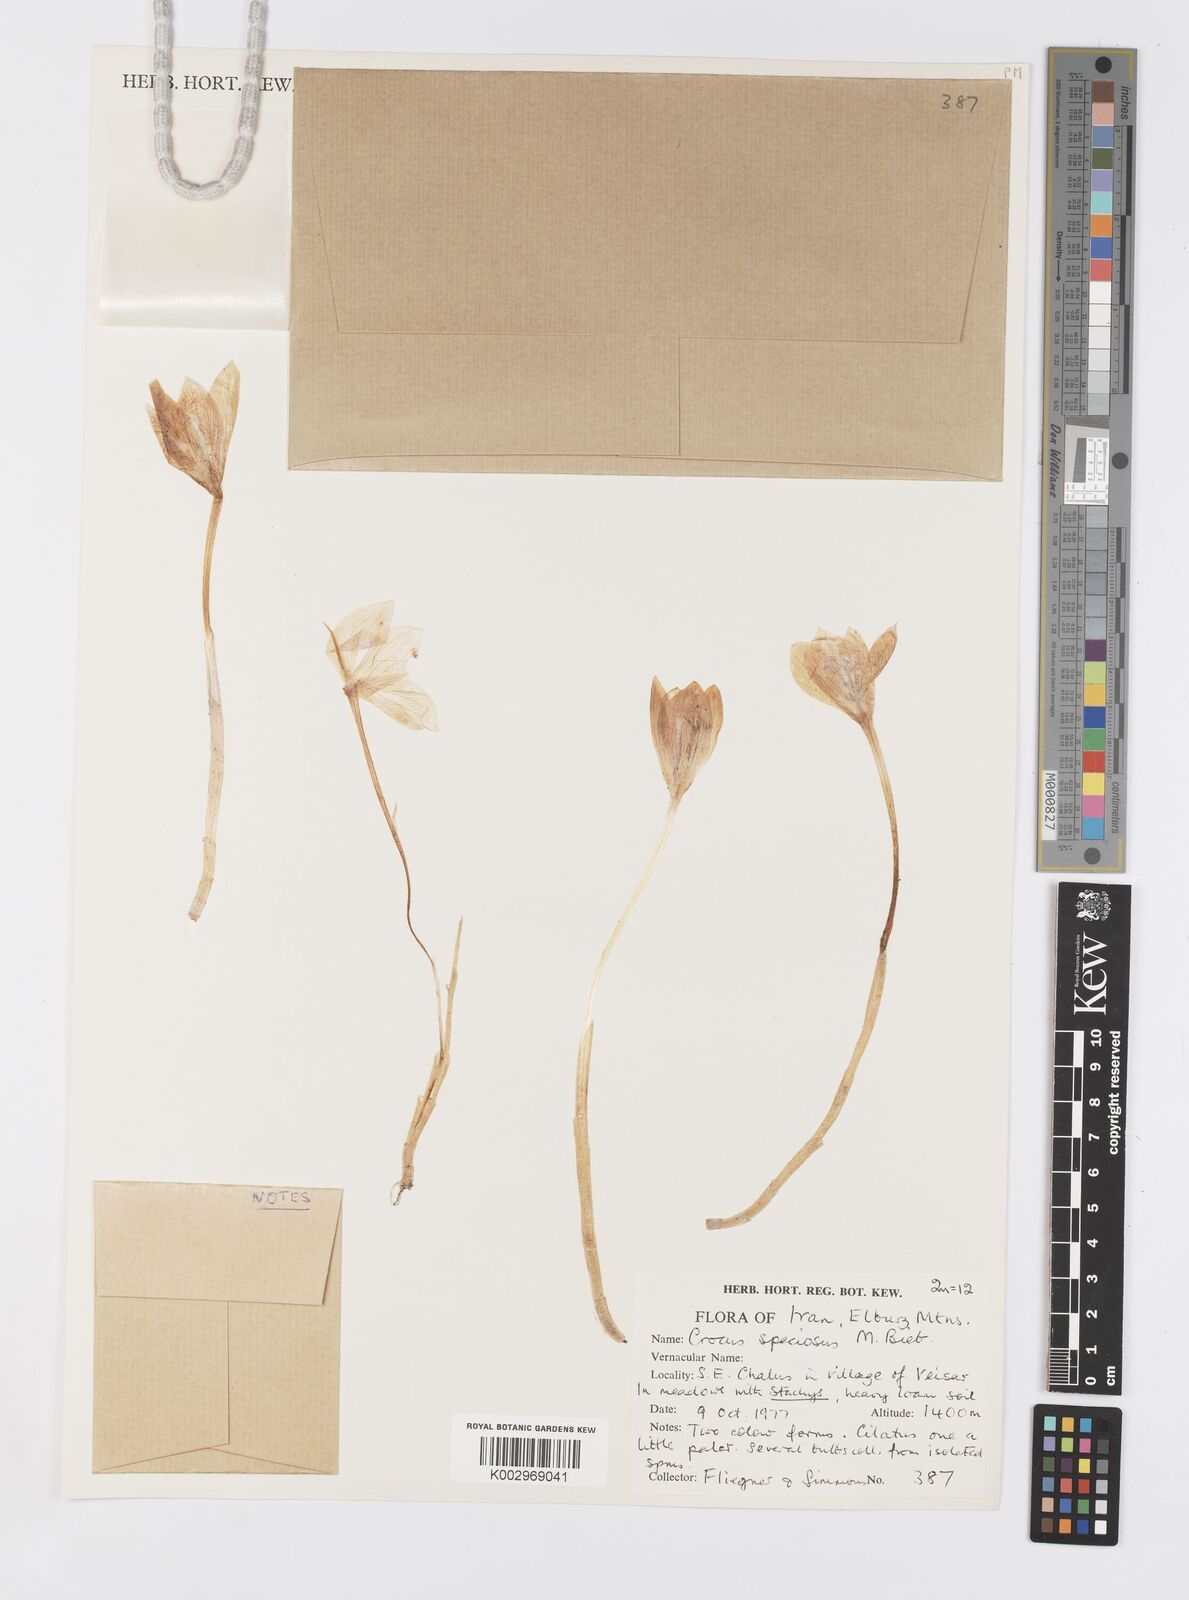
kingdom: Plantae
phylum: Tracheophyta
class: Liliopsida
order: Asparagales
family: Iridaceae
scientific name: Iridaceae
